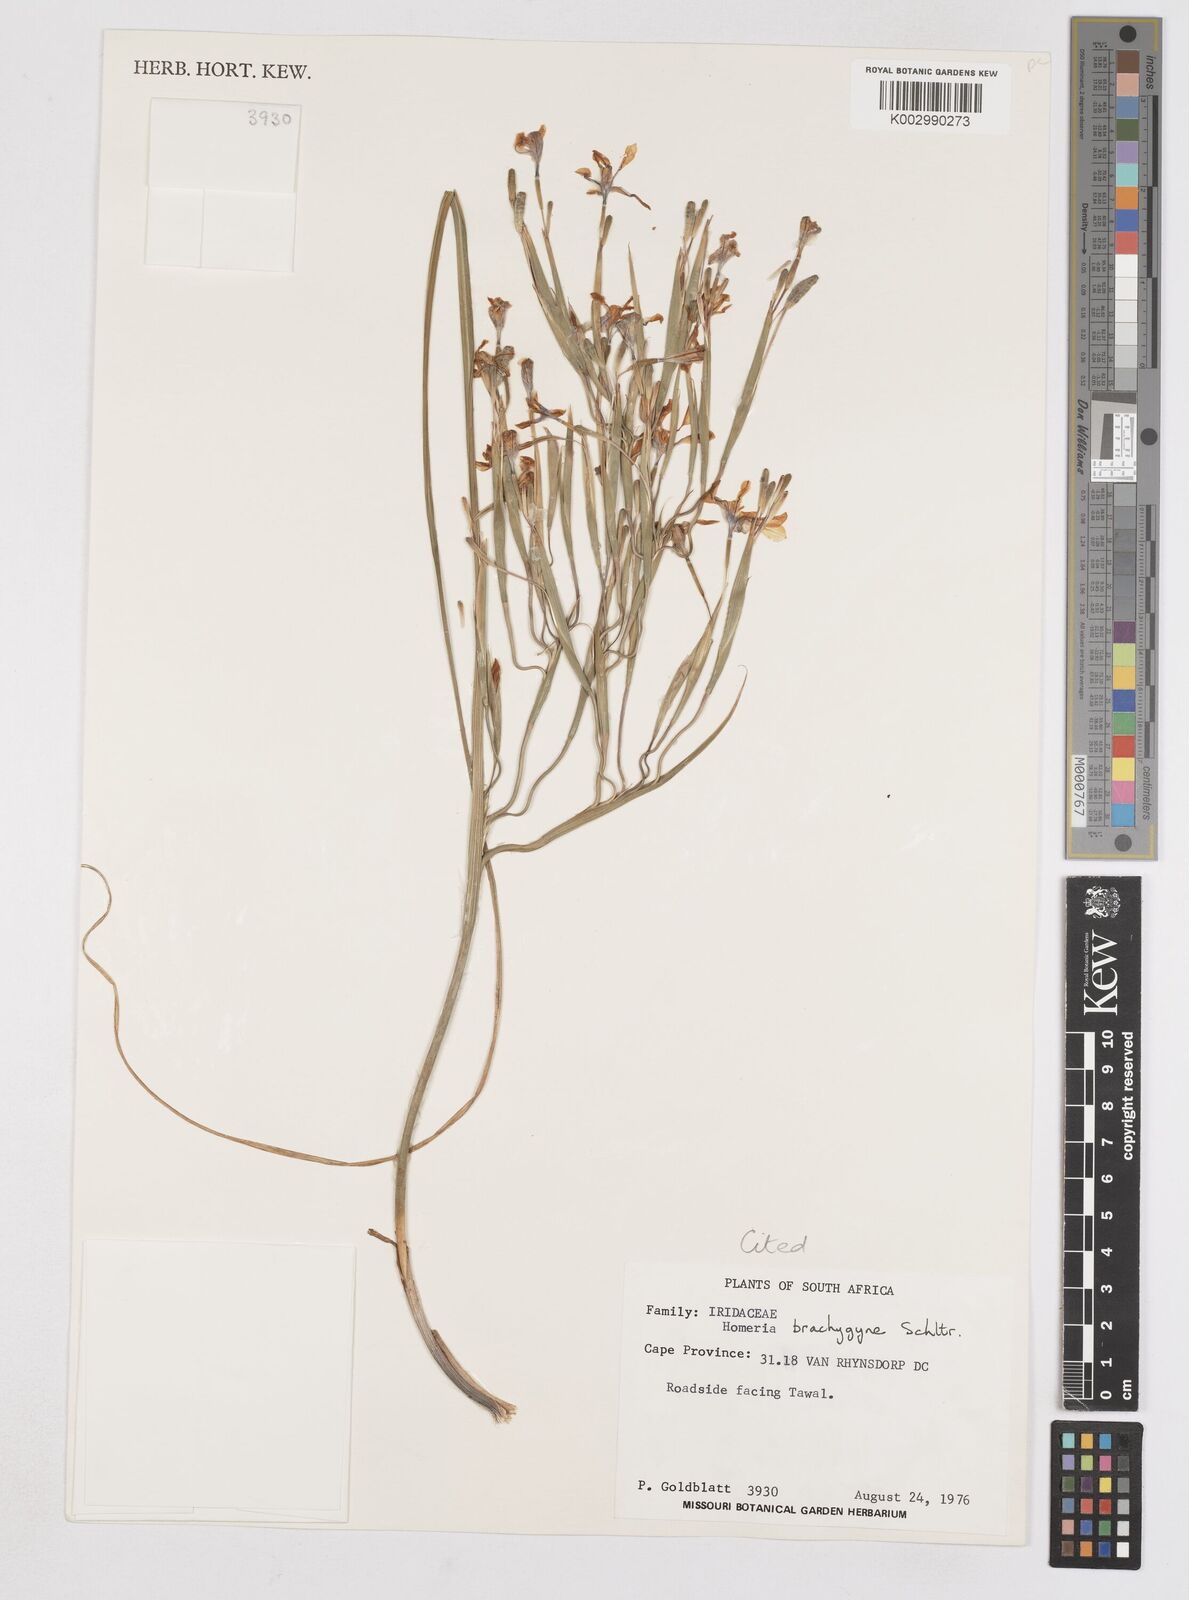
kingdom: Plantae
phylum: Tracheophyta
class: Liliopsida
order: Asparagales
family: Iridaceae
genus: Moraea
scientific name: Moraea brachygyne
